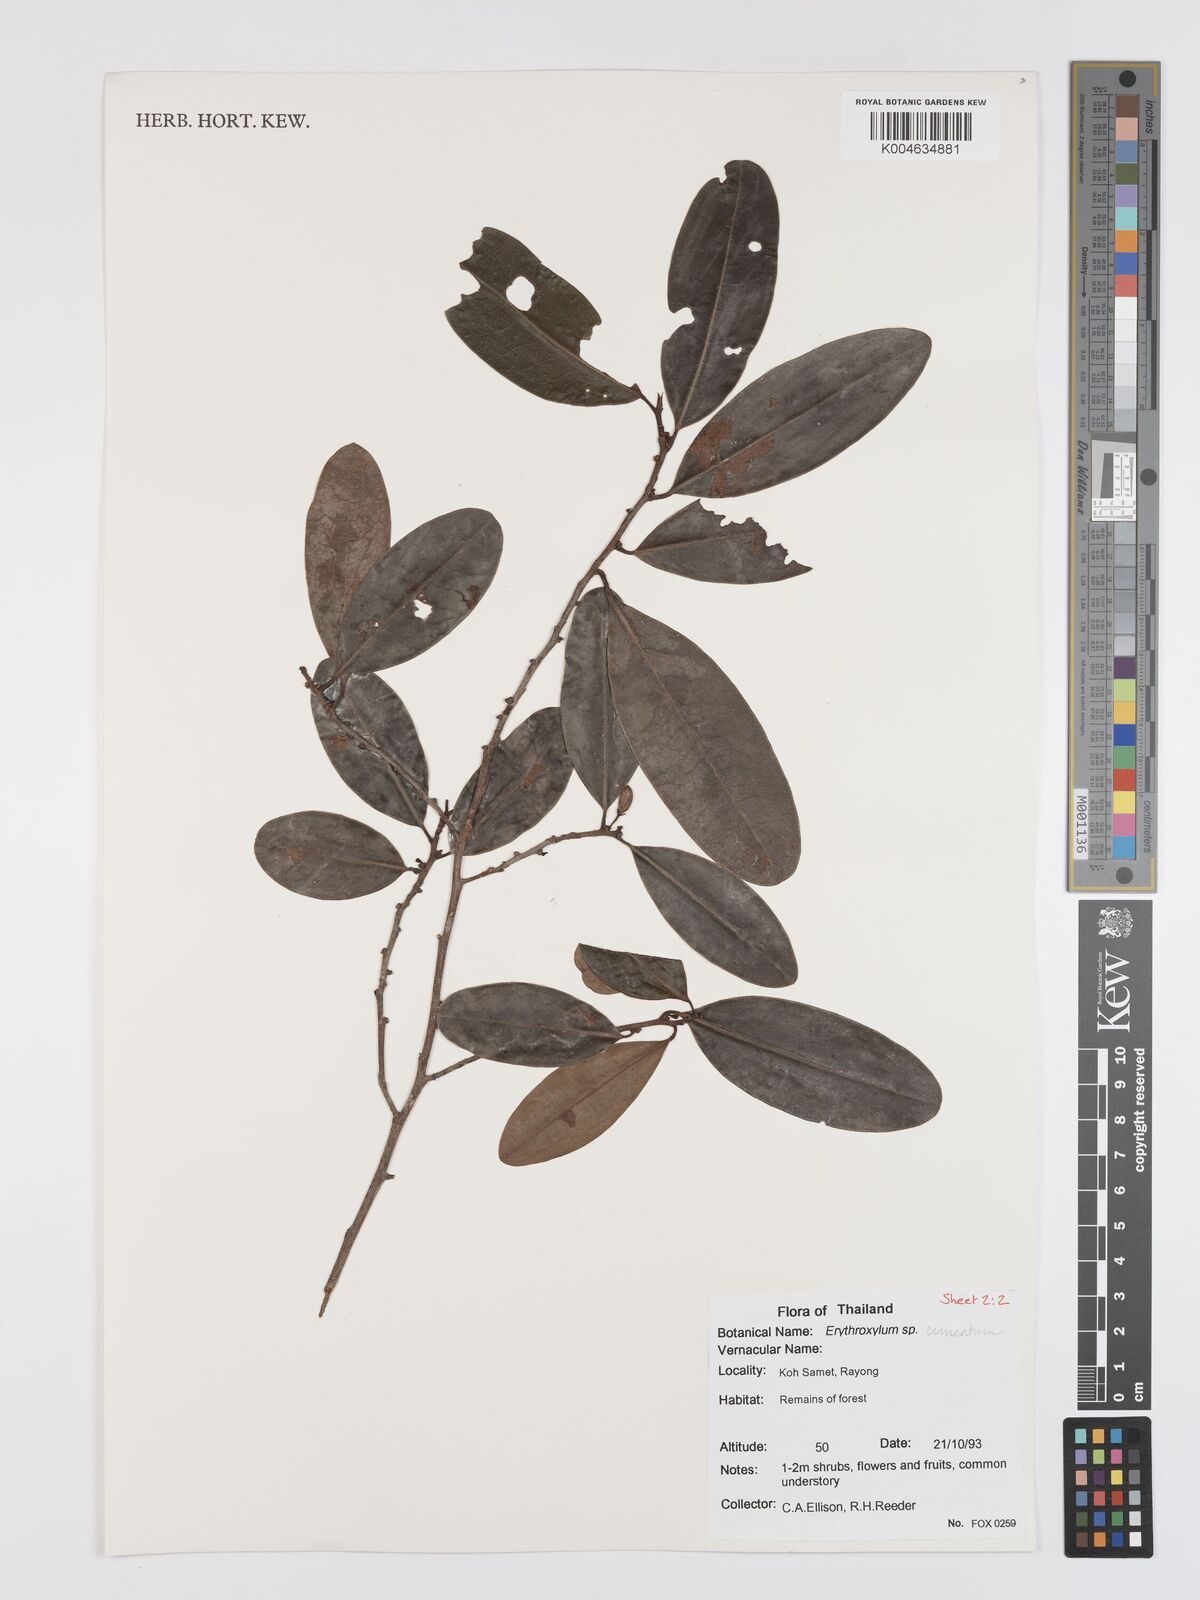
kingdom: Plantae
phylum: Tracheophyta
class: Magnoliopsida
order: Malpighiales
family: Erythroxylaceae
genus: Erythroxylum
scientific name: Erythroxylum
